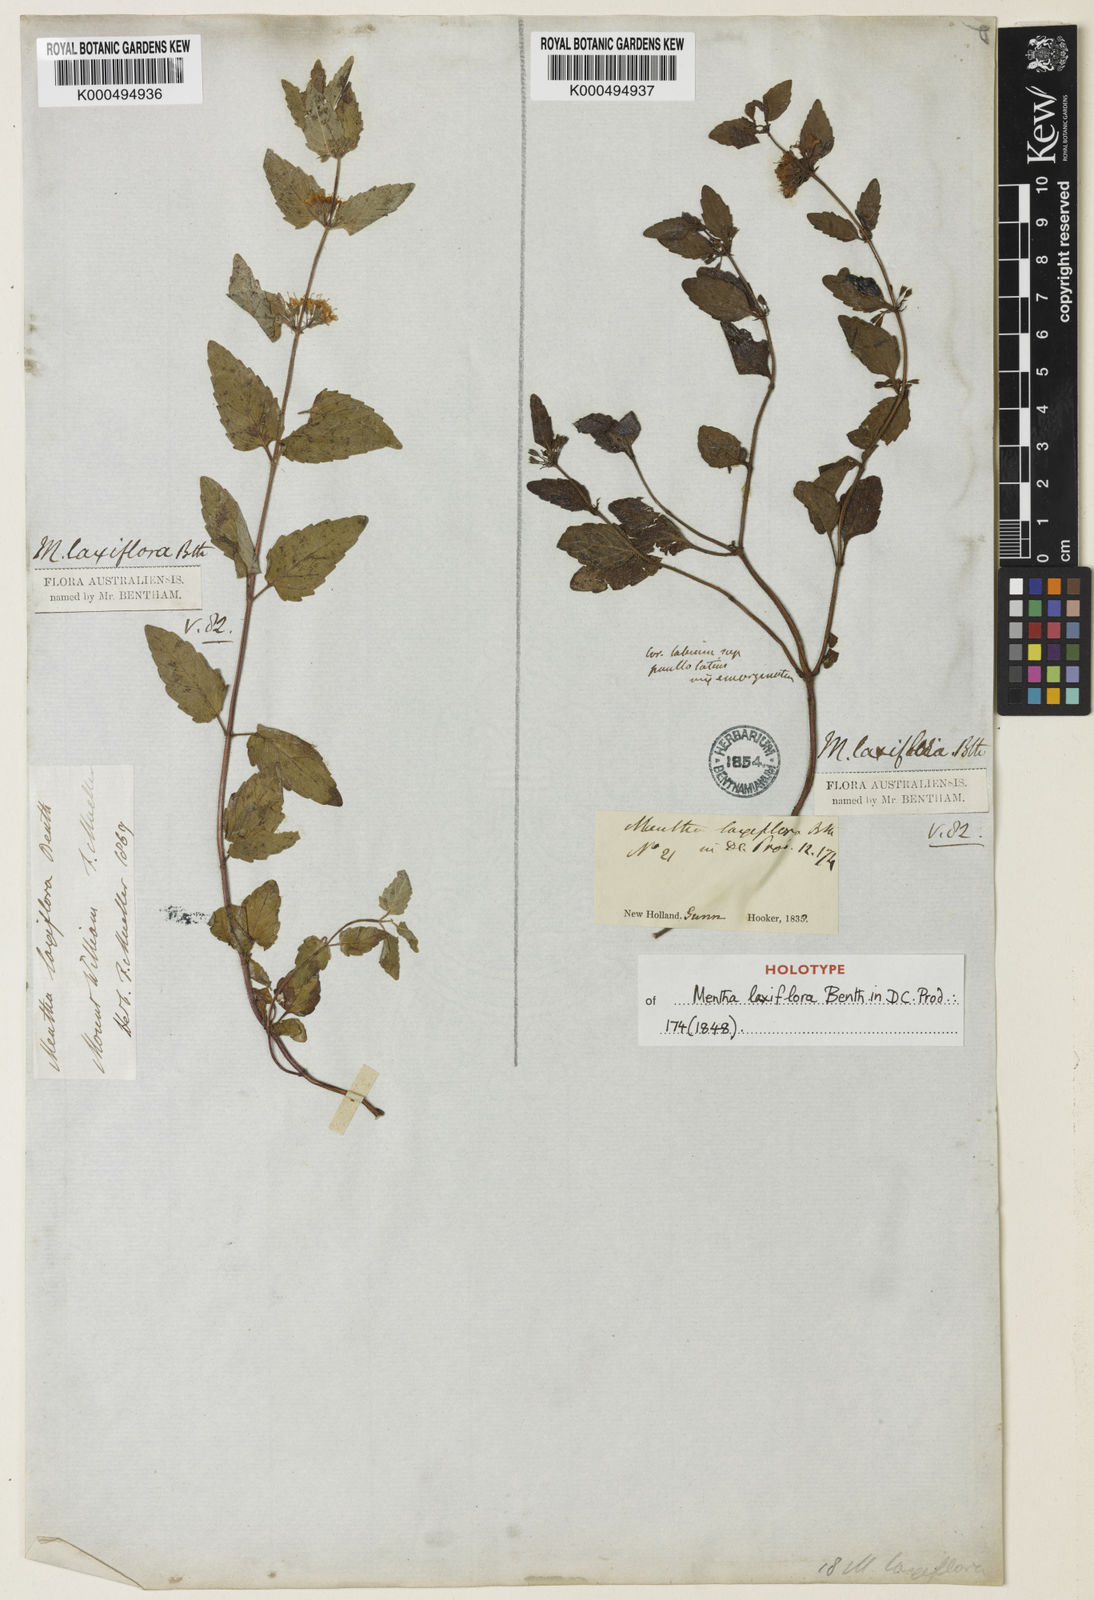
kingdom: Plantae
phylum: Tracheophyta
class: Magnoliopsida
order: Lamiales
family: Lamiaceae
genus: Mentha
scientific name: Mentha laxiflora
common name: Forest mint
